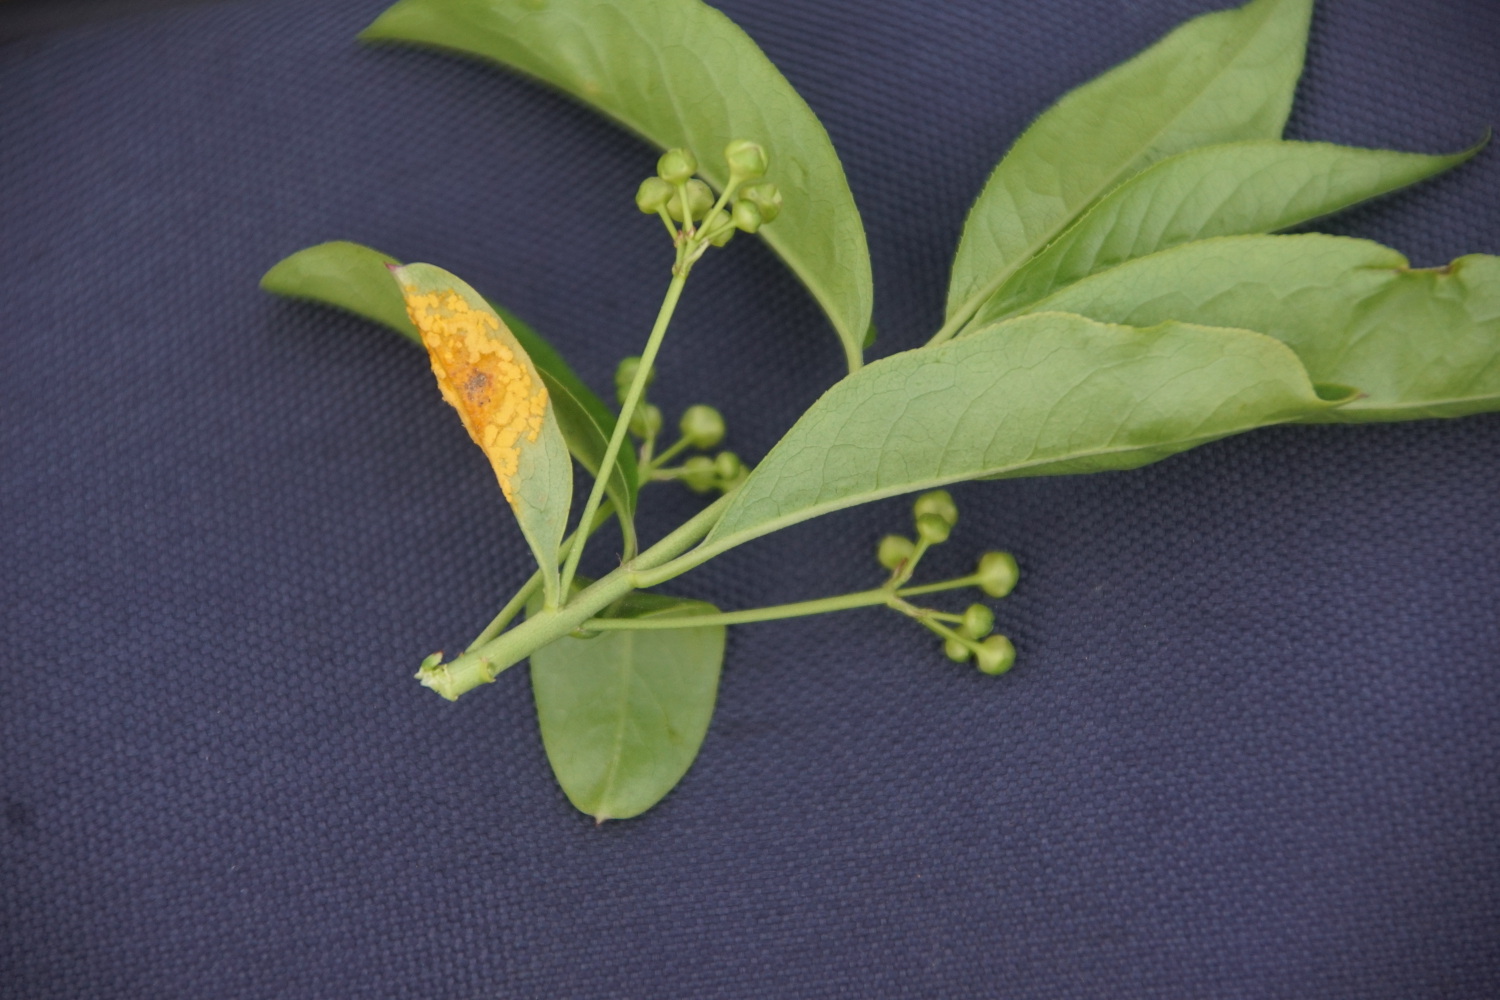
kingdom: Fungi
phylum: Basidiomycota
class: Pucciniomycetes
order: Pucciniales
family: Melampsoraceae
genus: Melampsora
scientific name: Melampsora epitea
